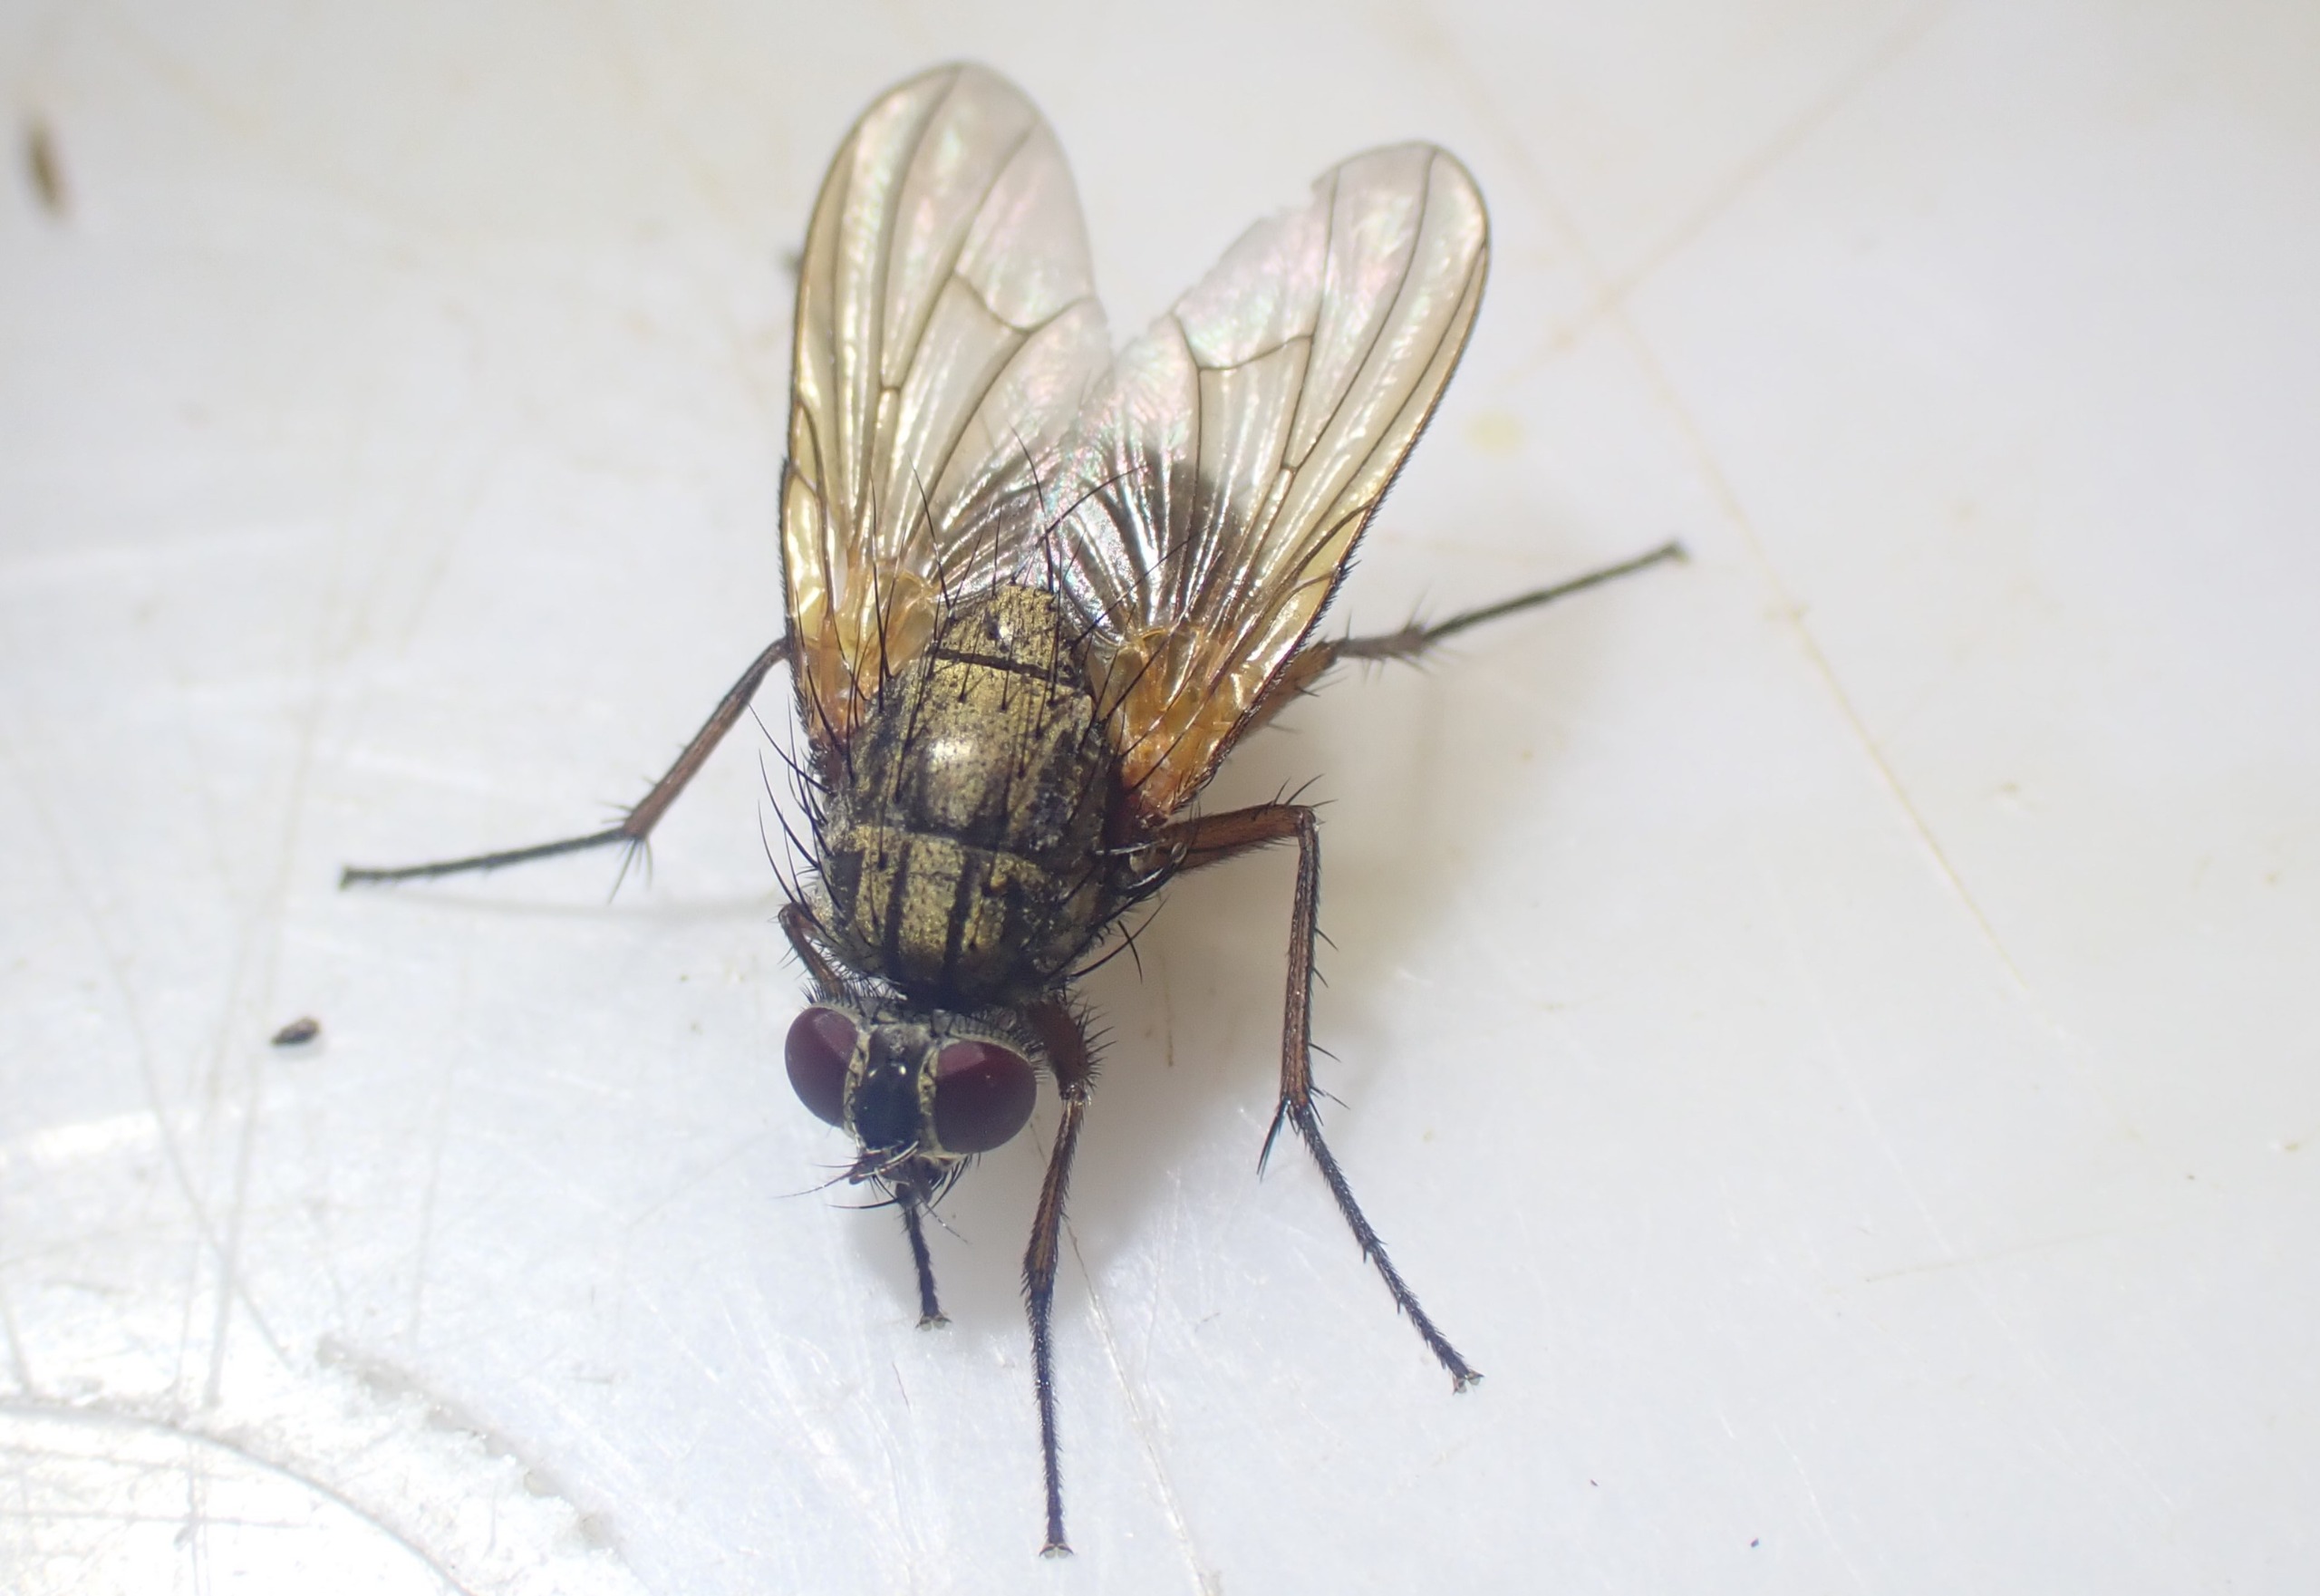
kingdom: Animalia
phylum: Arthropoda
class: Insecta
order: Diptera
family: Muscidae
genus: Phaonia
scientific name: Phaonia angelicae
